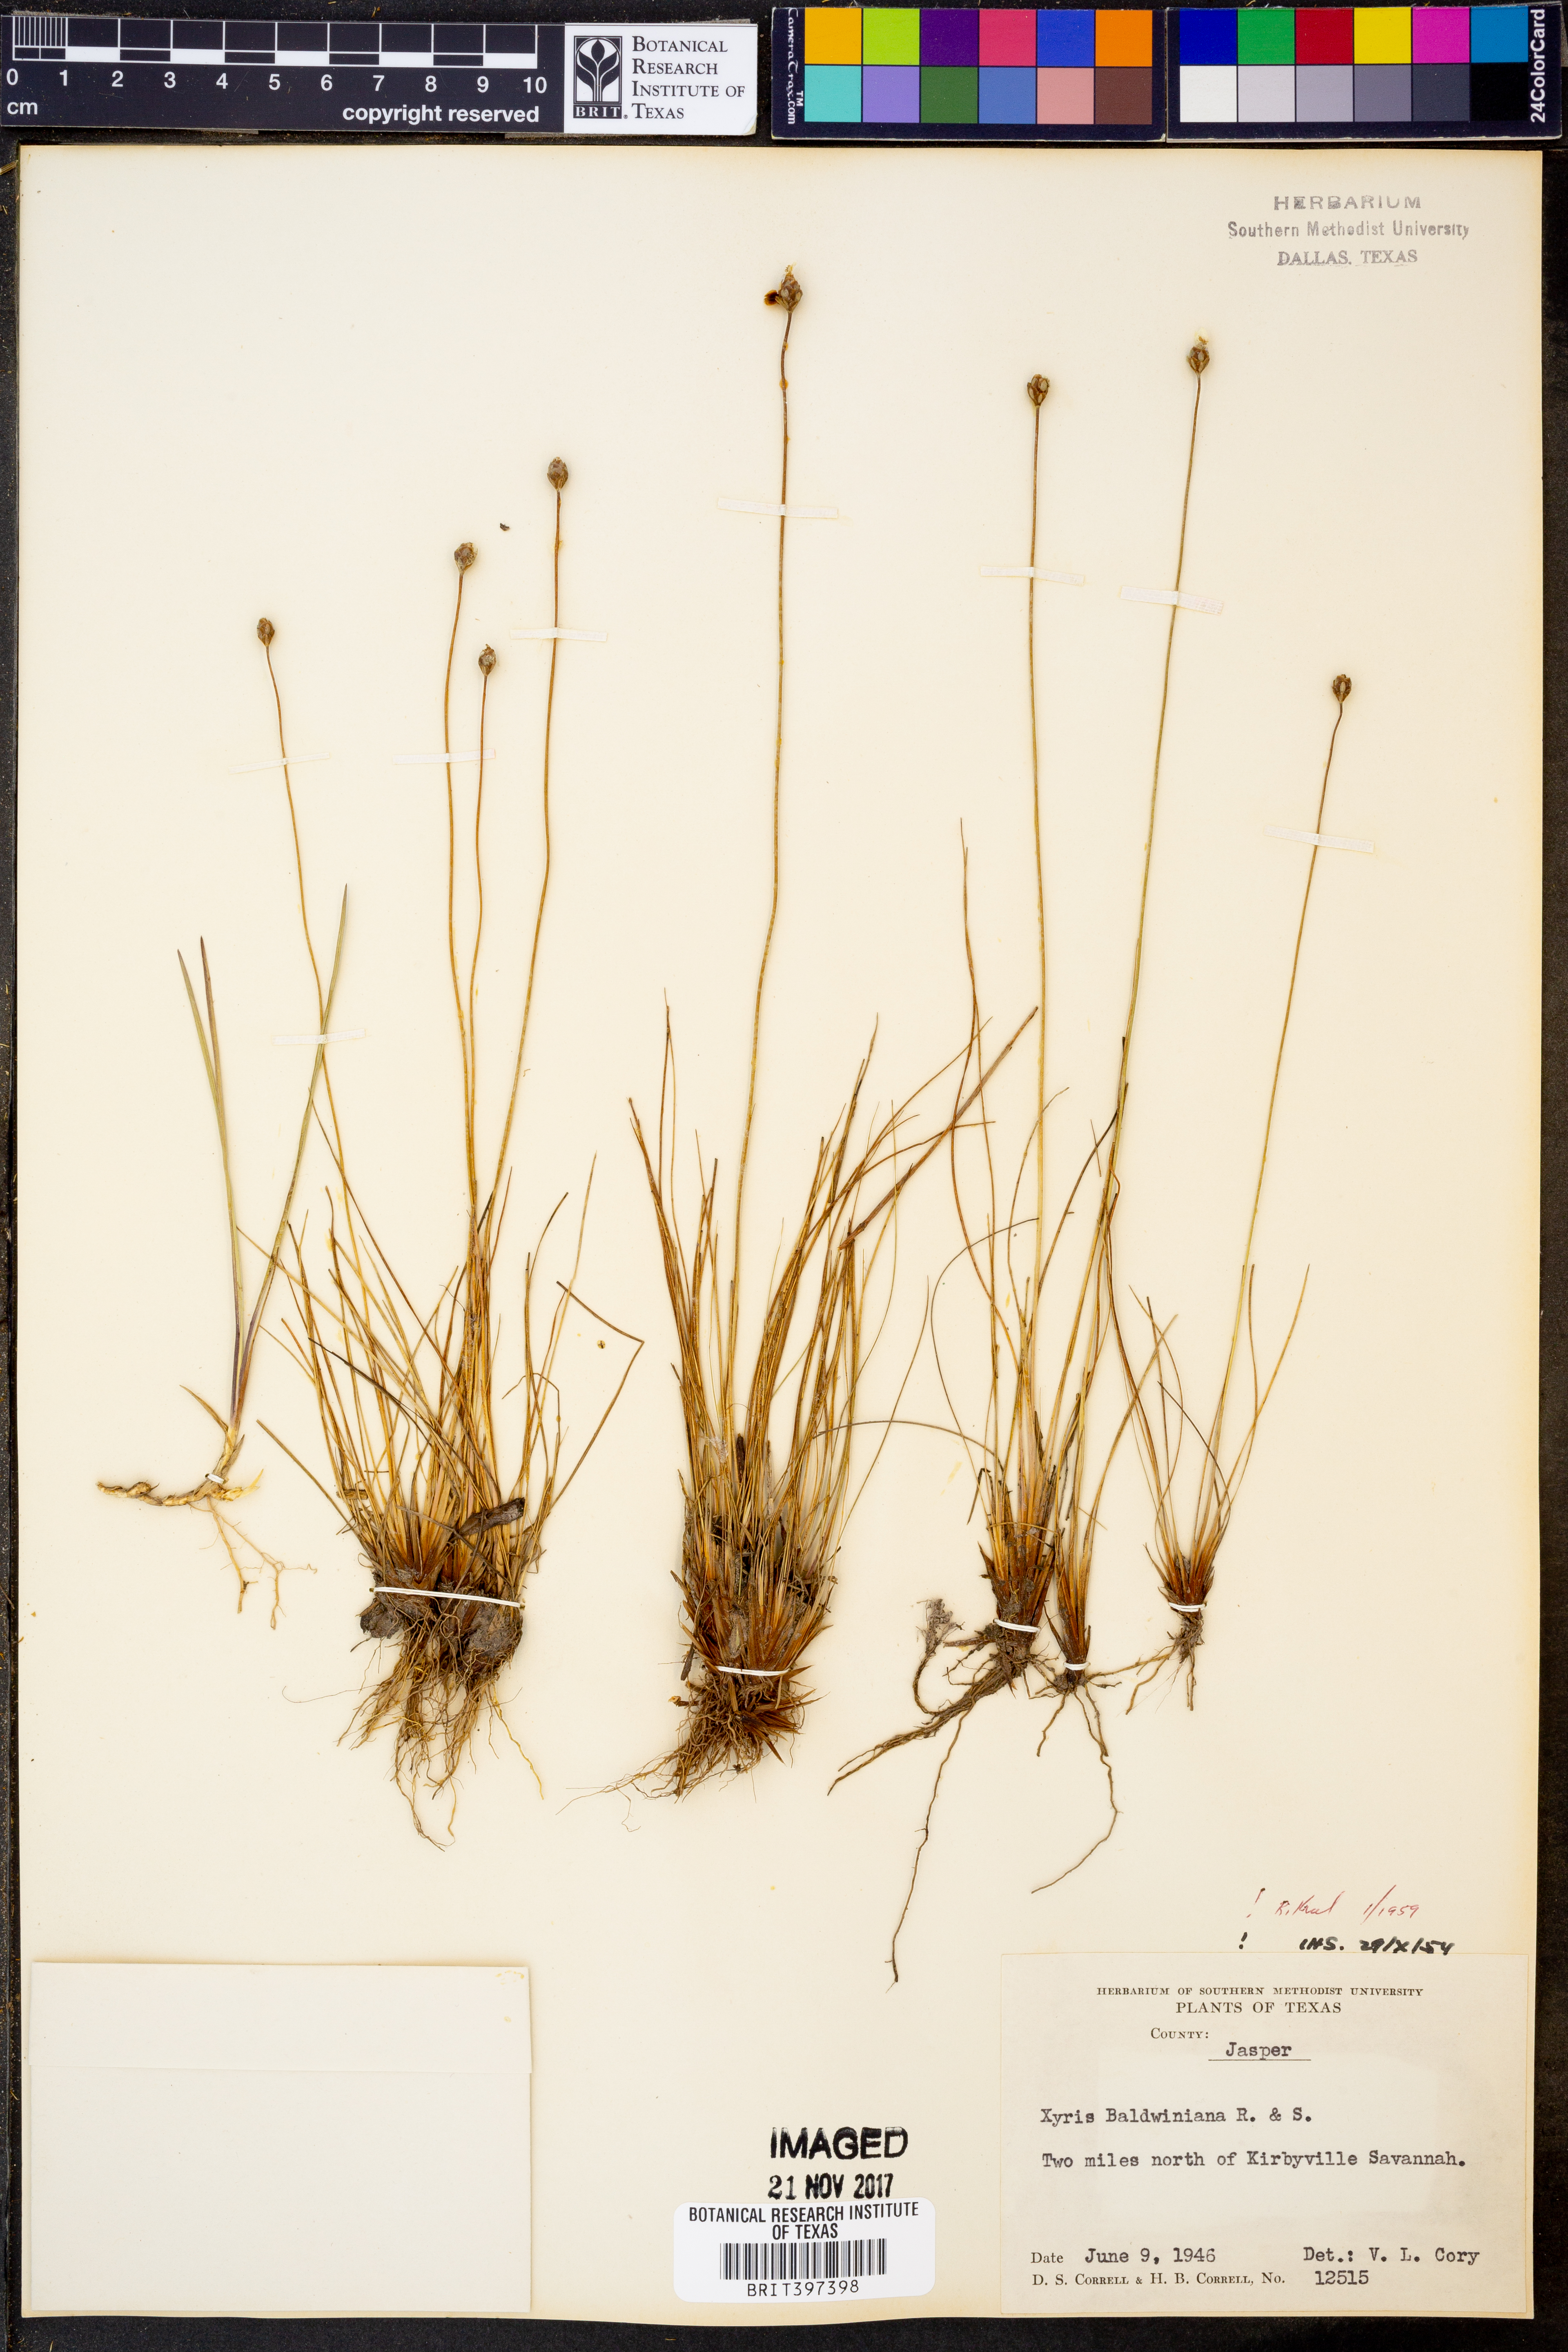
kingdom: Plantae
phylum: Tracheophyta
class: Liliopsida
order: Poales
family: Xyridaceae
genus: Xyris
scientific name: Xyris baldwiniana
